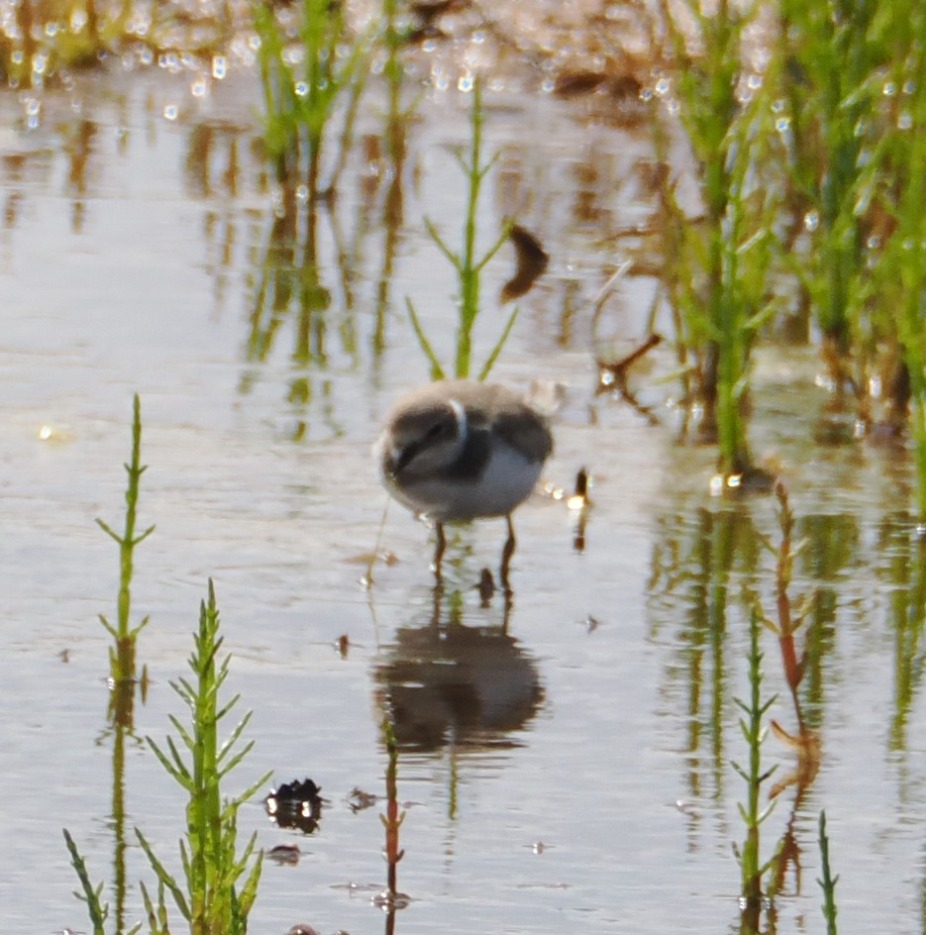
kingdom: Animalia
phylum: Chordata
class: Aves
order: Charadriiformes
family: Charadriidae
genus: Charadrius
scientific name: Charadrius dubius
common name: Lille præstekrave
